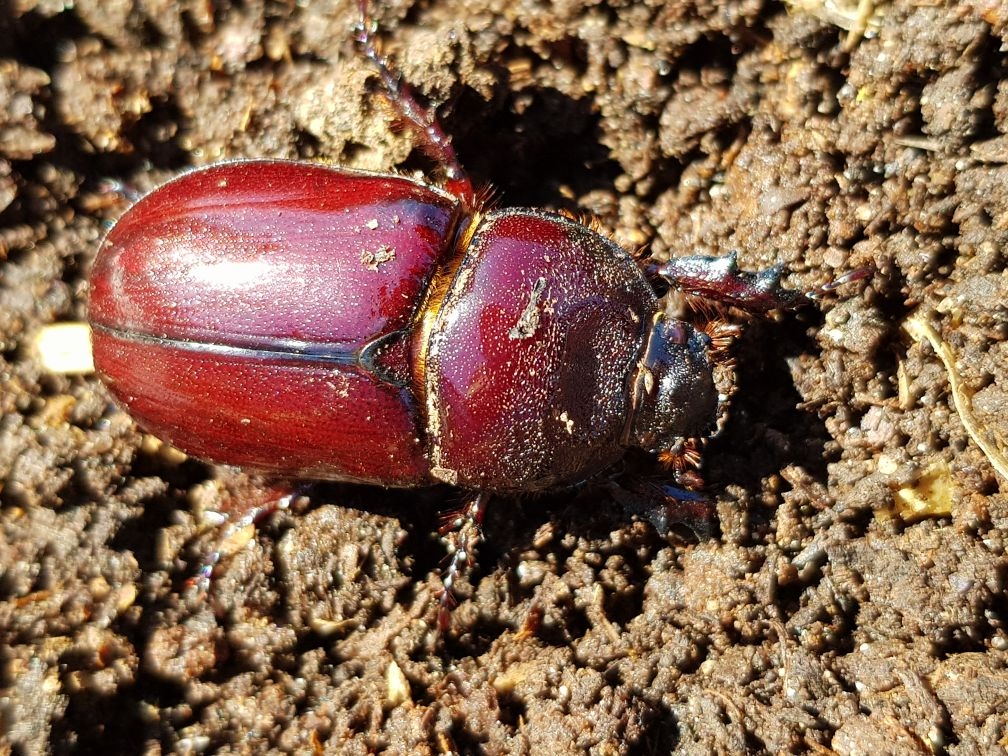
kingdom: Animalia
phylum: Arthropoda
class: Insecta
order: Coleoptera
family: Scarabaeidae
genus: Oryctes
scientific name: Oryctes nasicornis
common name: Næsehornsbille
